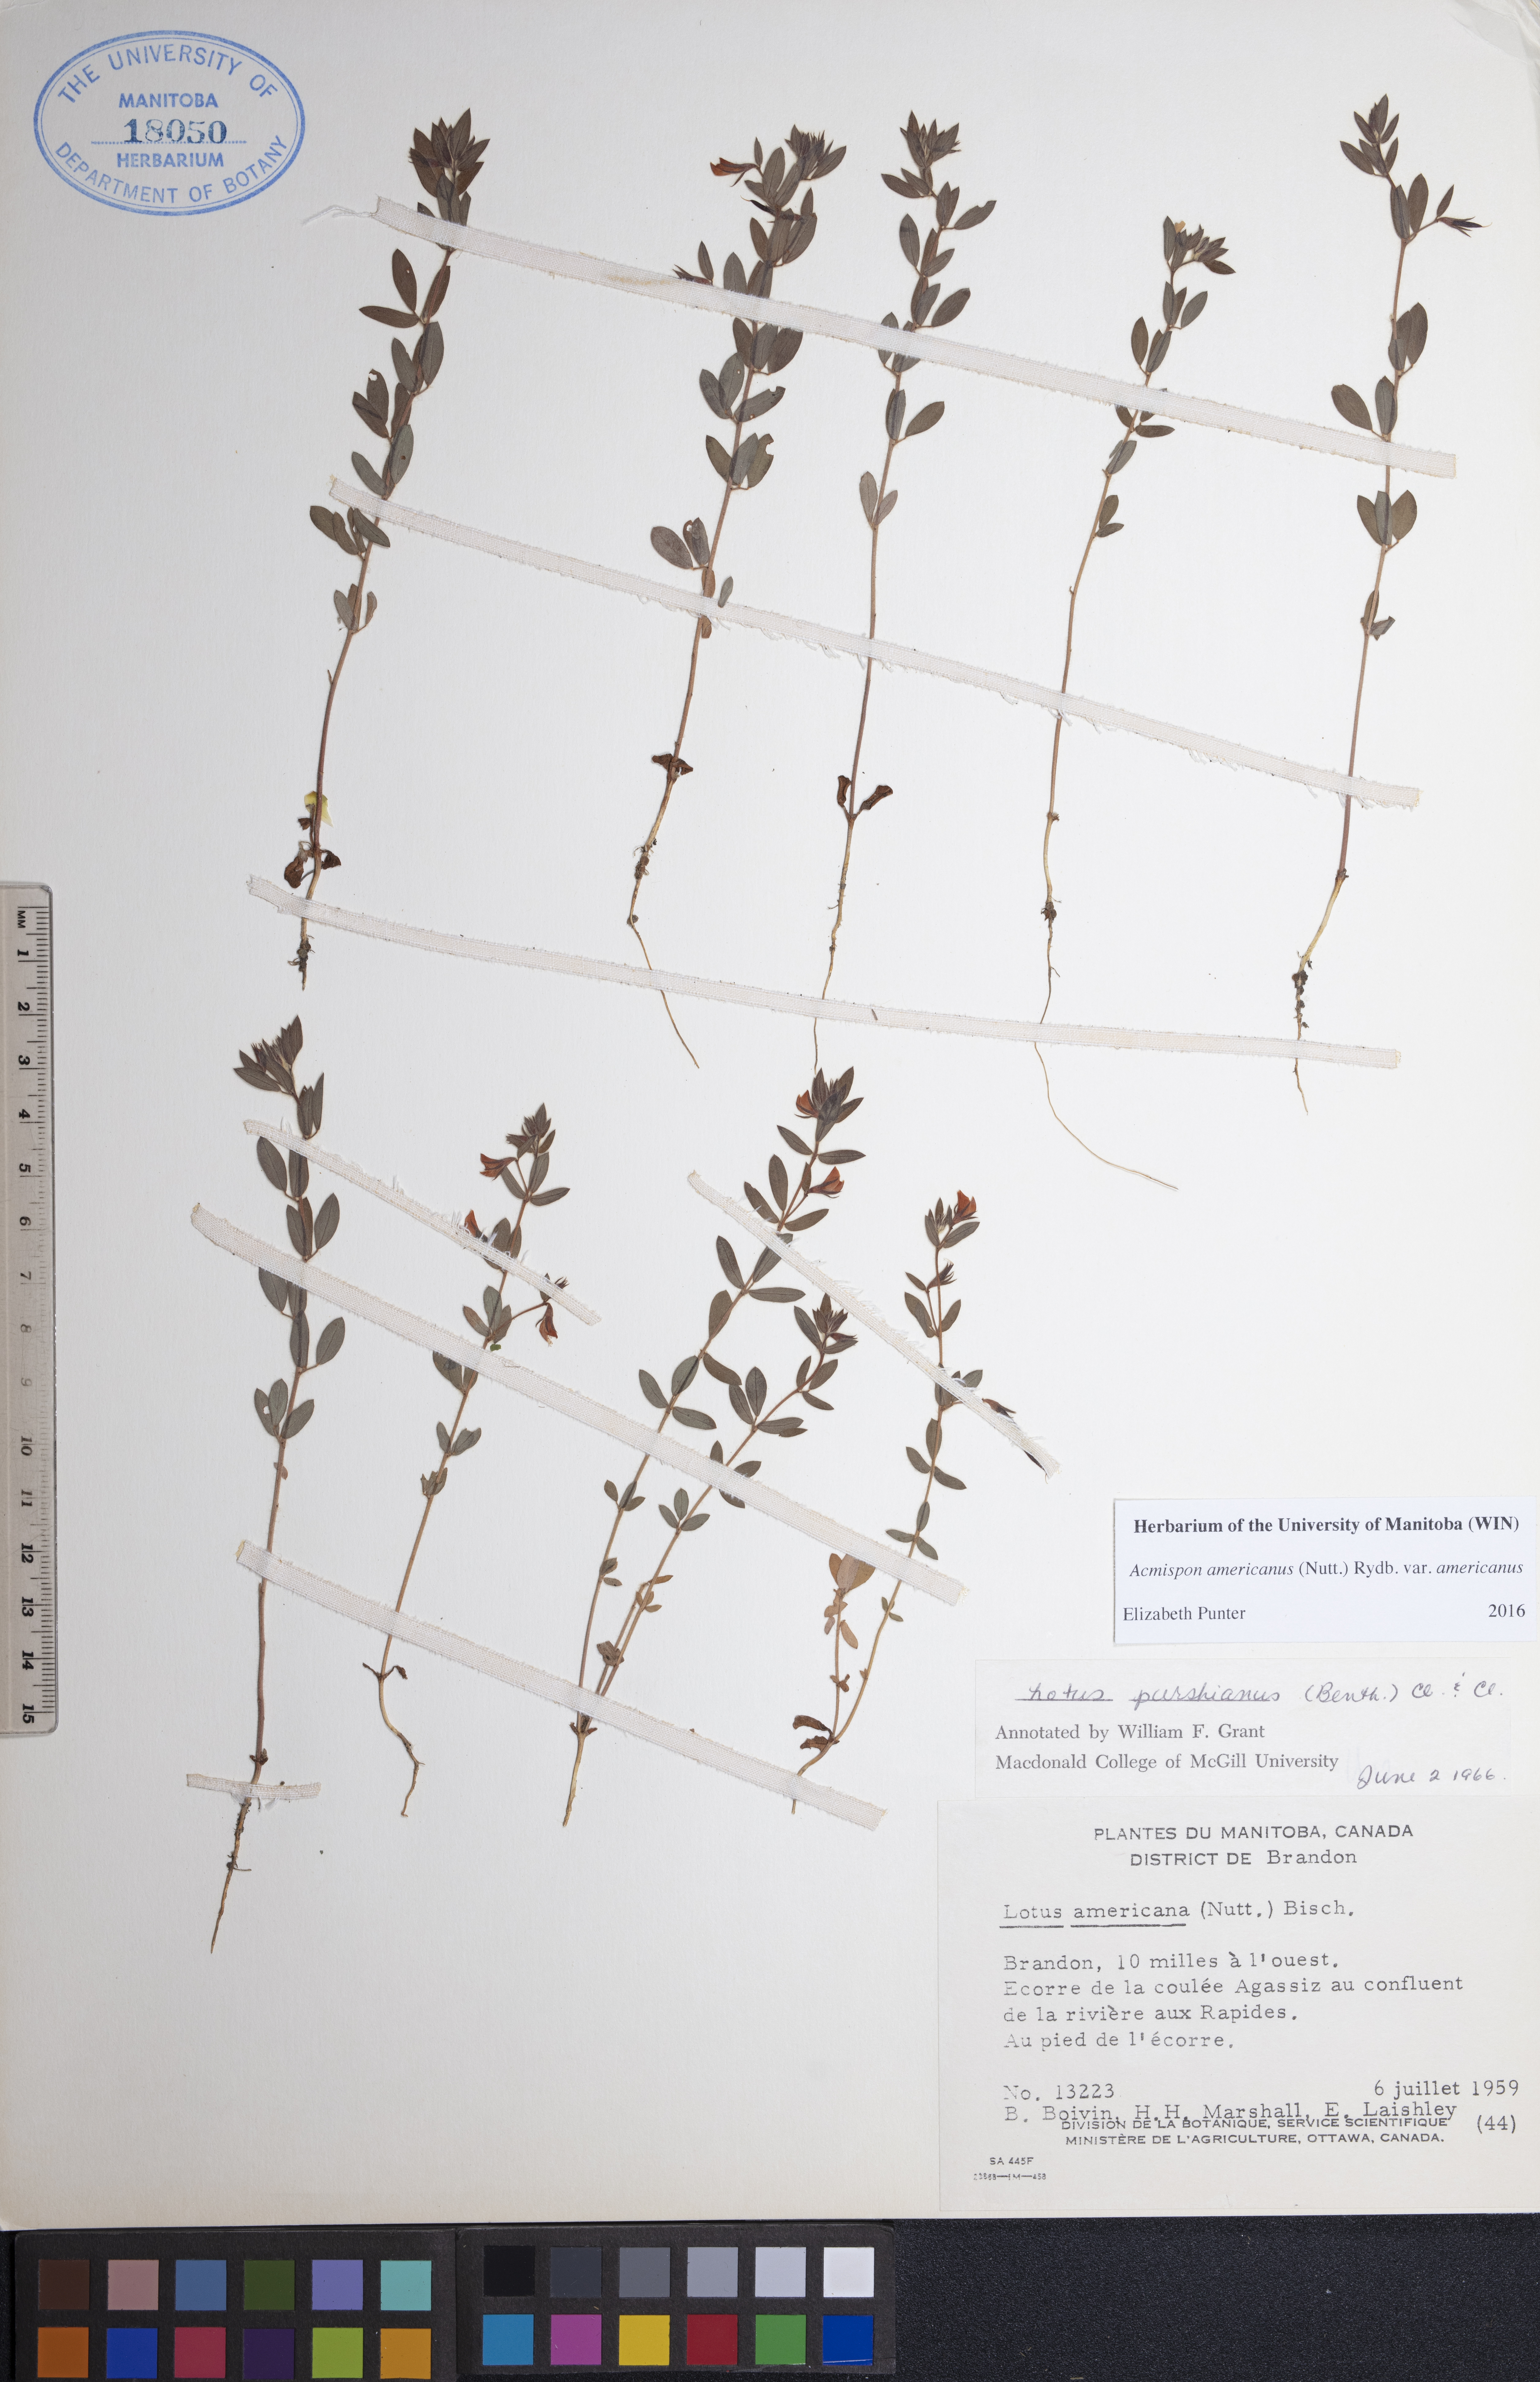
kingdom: Plantae
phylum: Tracheophyta
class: Magnoliopsida
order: Fabales
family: Fabaceae
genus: Acmispon
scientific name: Acmispon americanus
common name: American bird's-foot trefoil
